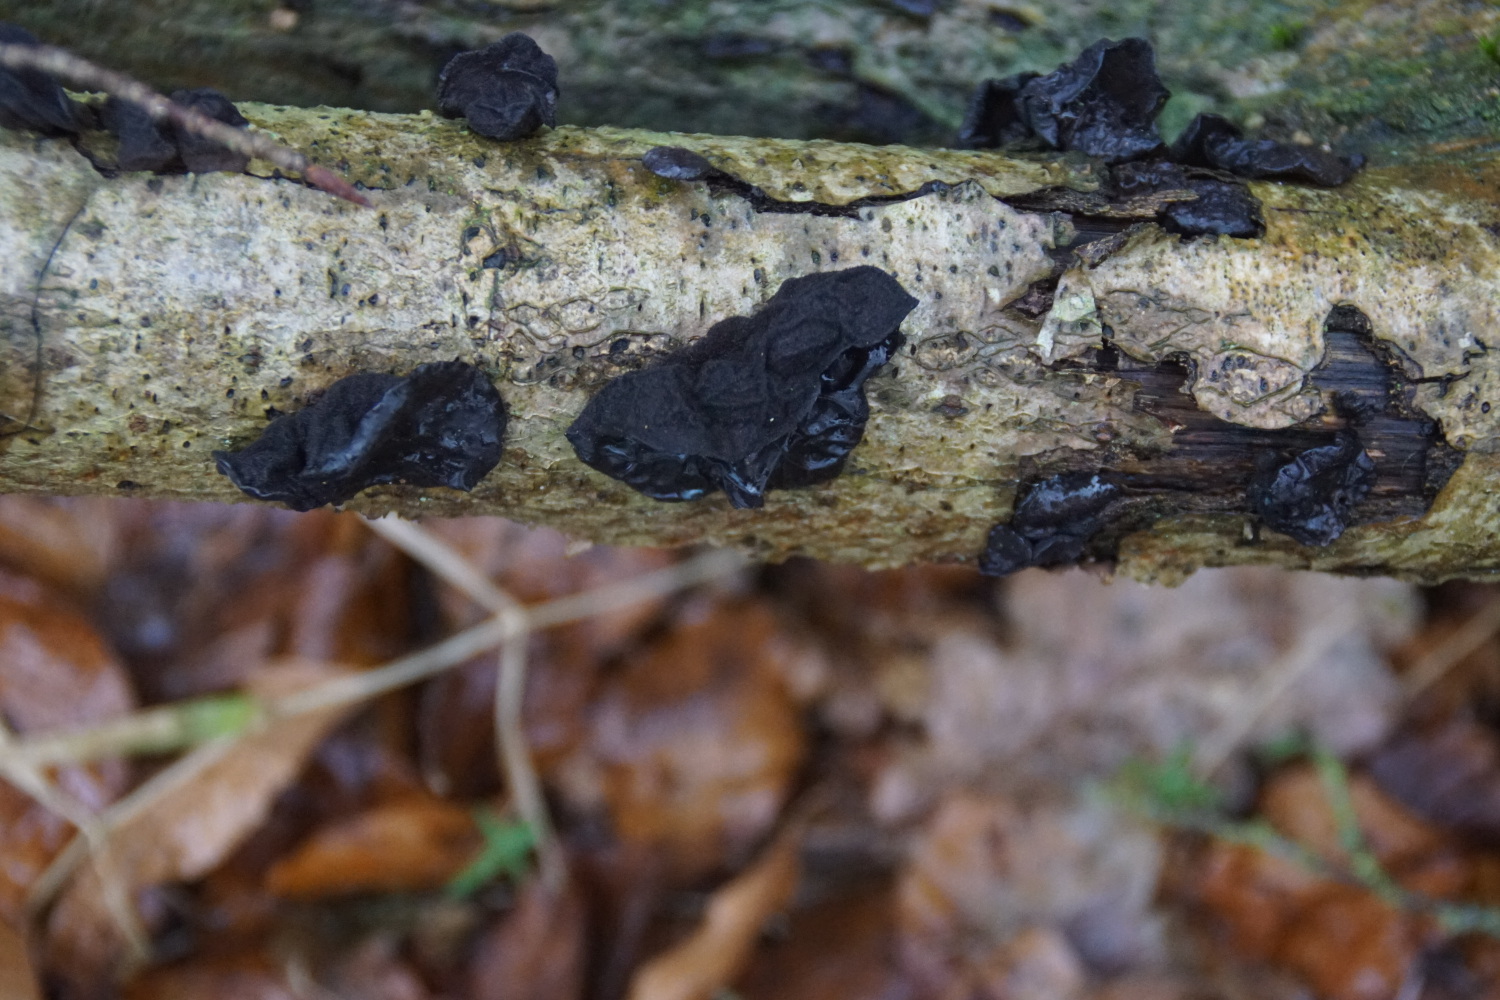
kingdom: Fungi
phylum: Basidiomycota
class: Agaricomycetes
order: Auriculariales
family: Auriculariaceae
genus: Exidia
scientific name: Exidia glandulosa
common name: ege-bævretop
